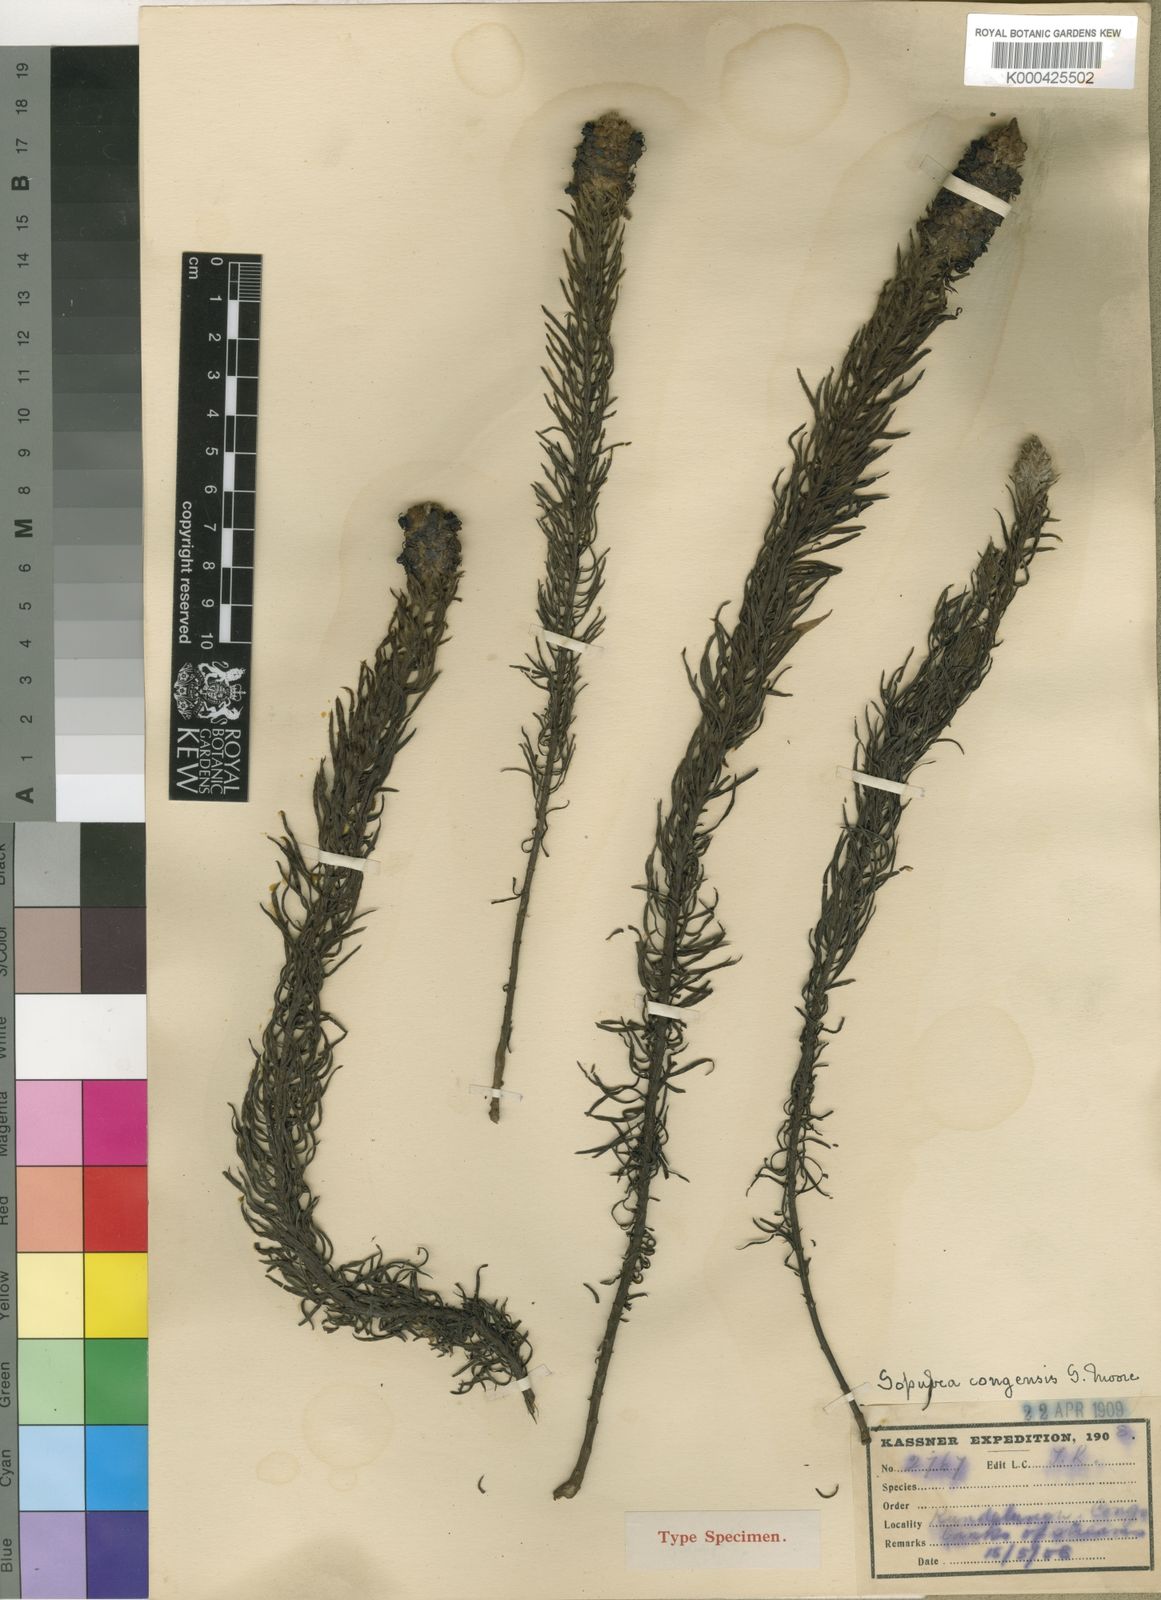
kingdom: Plantae
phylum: Tracheophyta
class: Magnoliopsida
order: Lamiales
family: Orobanchaceae
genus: Sopubia
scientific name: Sopubia conferta
